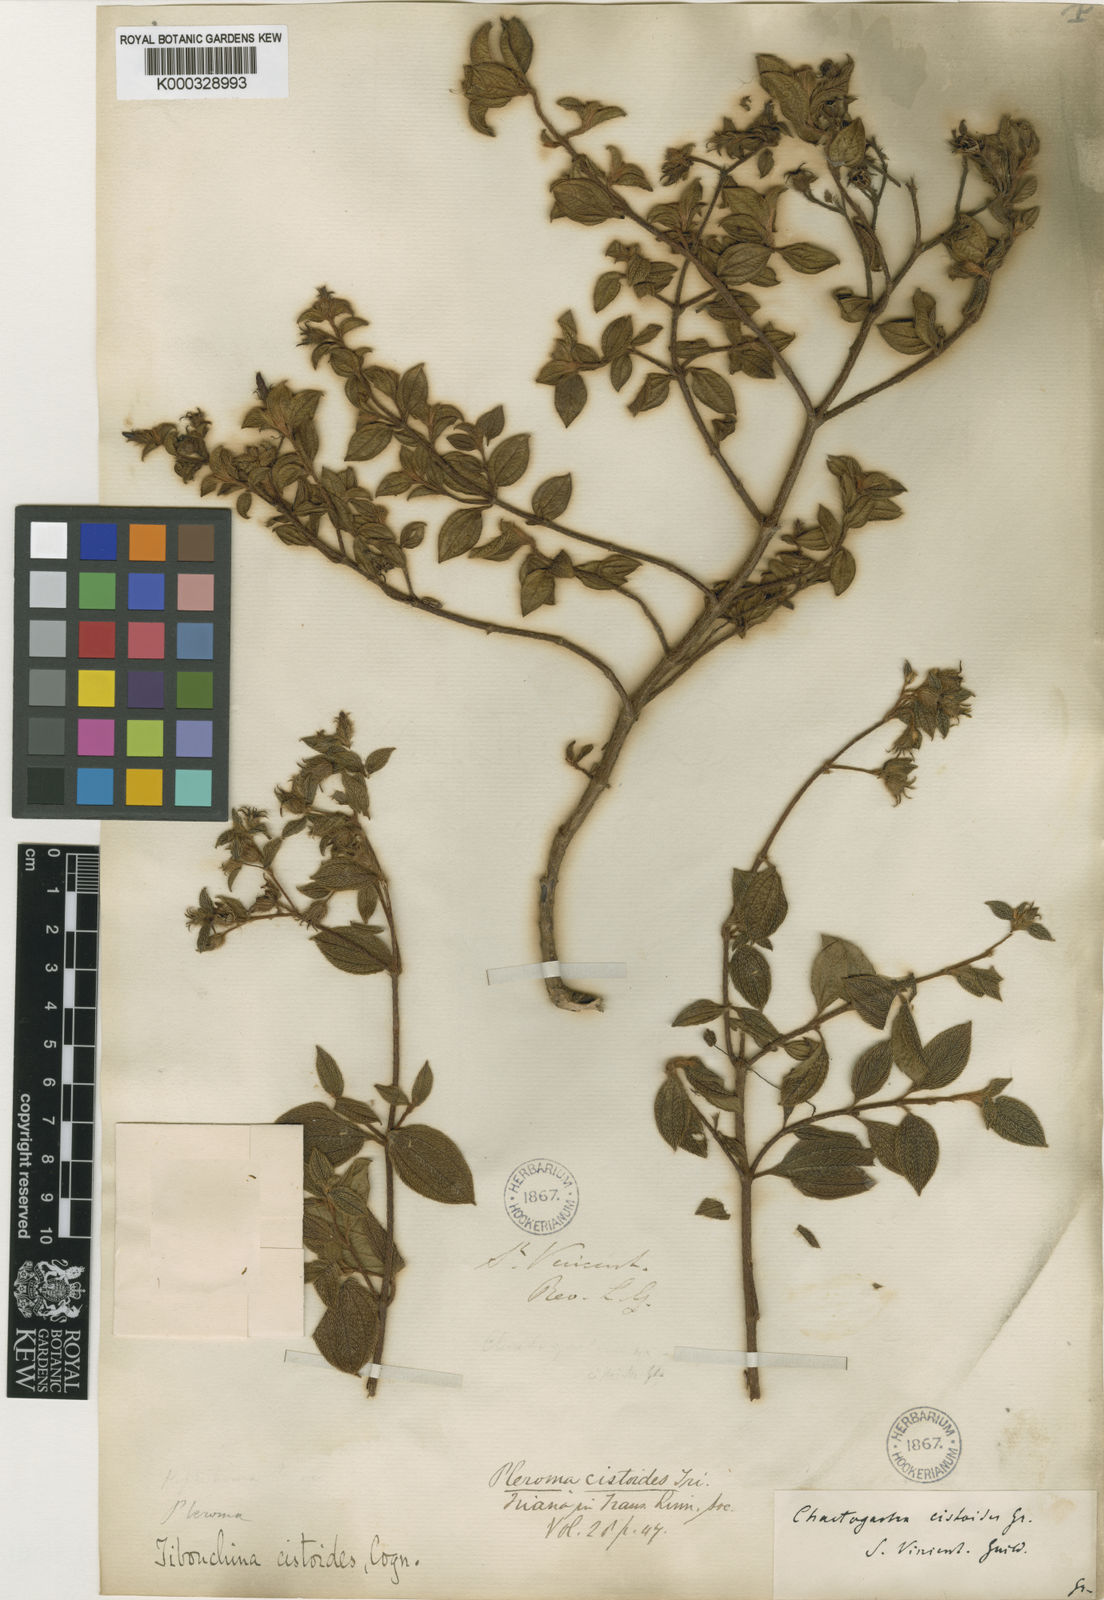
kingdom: Plantae
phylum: Tracheophyta
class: Magnoliopsida
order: Myrtales
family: Melastomataceae
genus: Chaetogastra
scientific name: Chaetogastra cistoides
